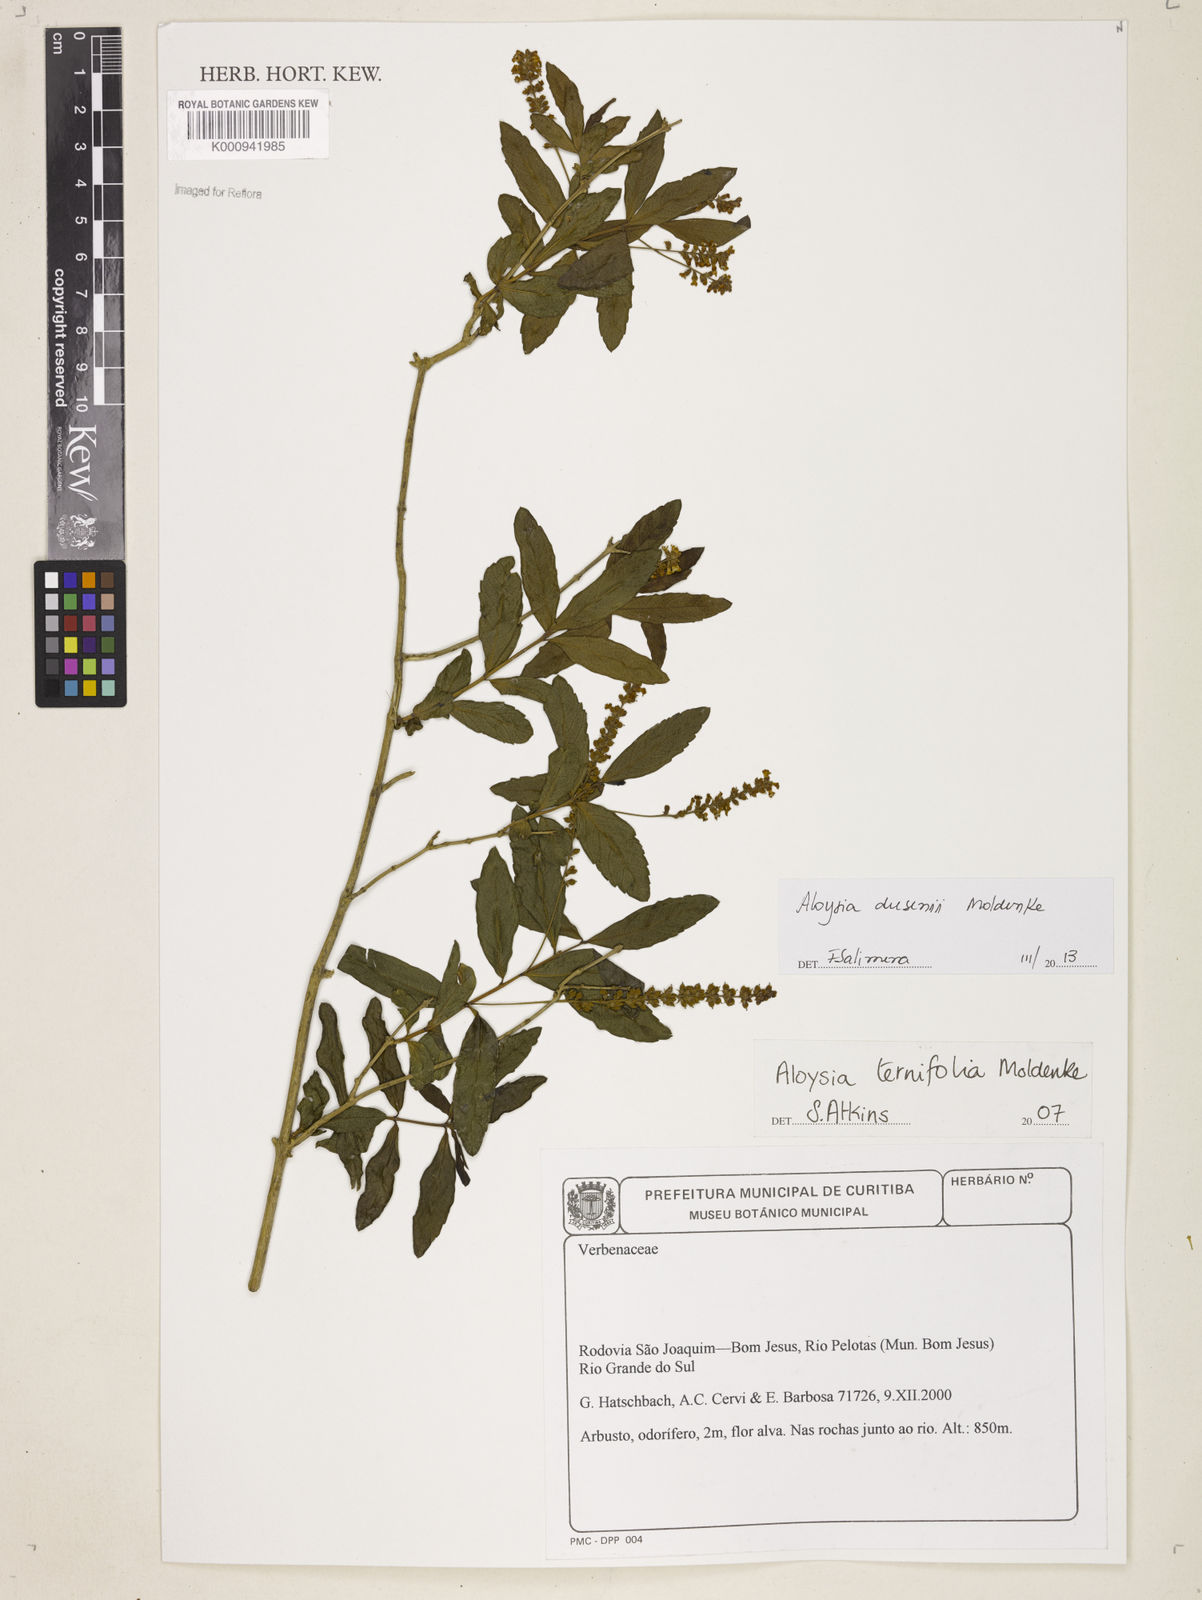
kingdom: Plantae
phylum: Tracheophyta
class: Magnoliopsida
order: Lamiales
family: Verbenaceae
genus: Aloysia
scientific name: Aloysia dusenii
